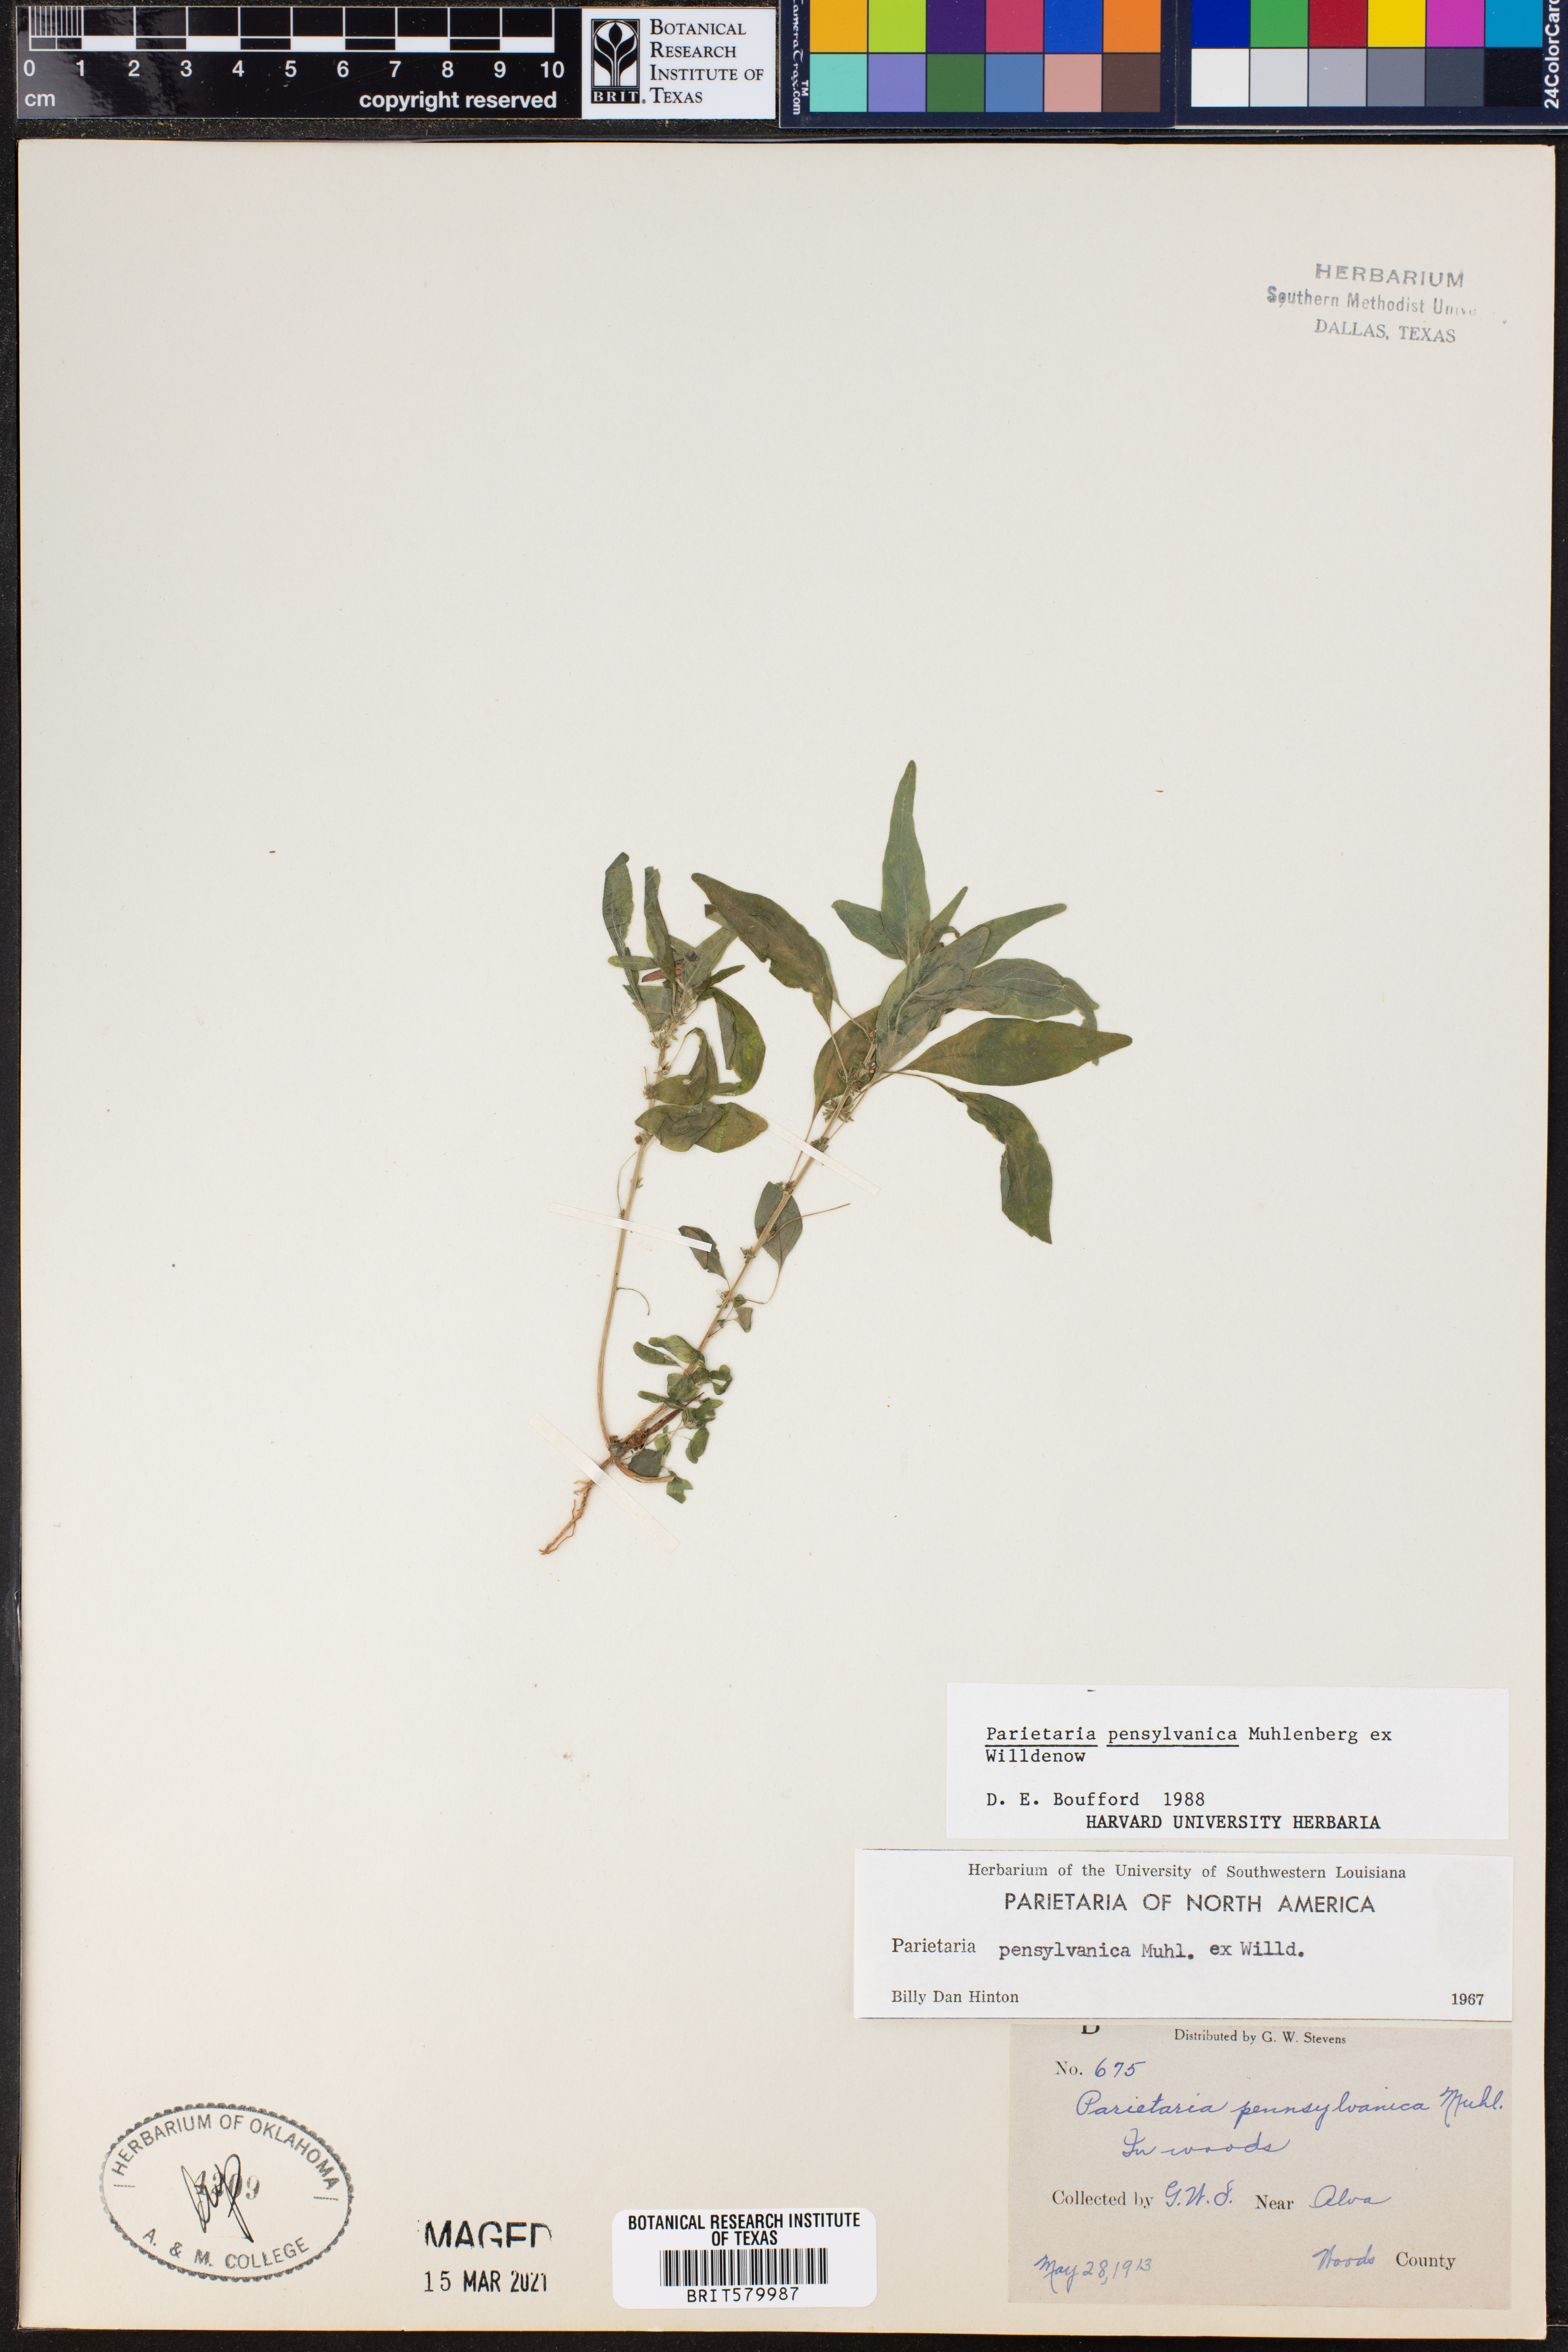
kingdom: Plantae
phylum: Tracheophyta
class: Magnoliopsida
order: Rosales
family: Urticaceae
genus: Parietaria
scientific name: Parietaria pensylvanica
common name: Pennsylvania pellitory
